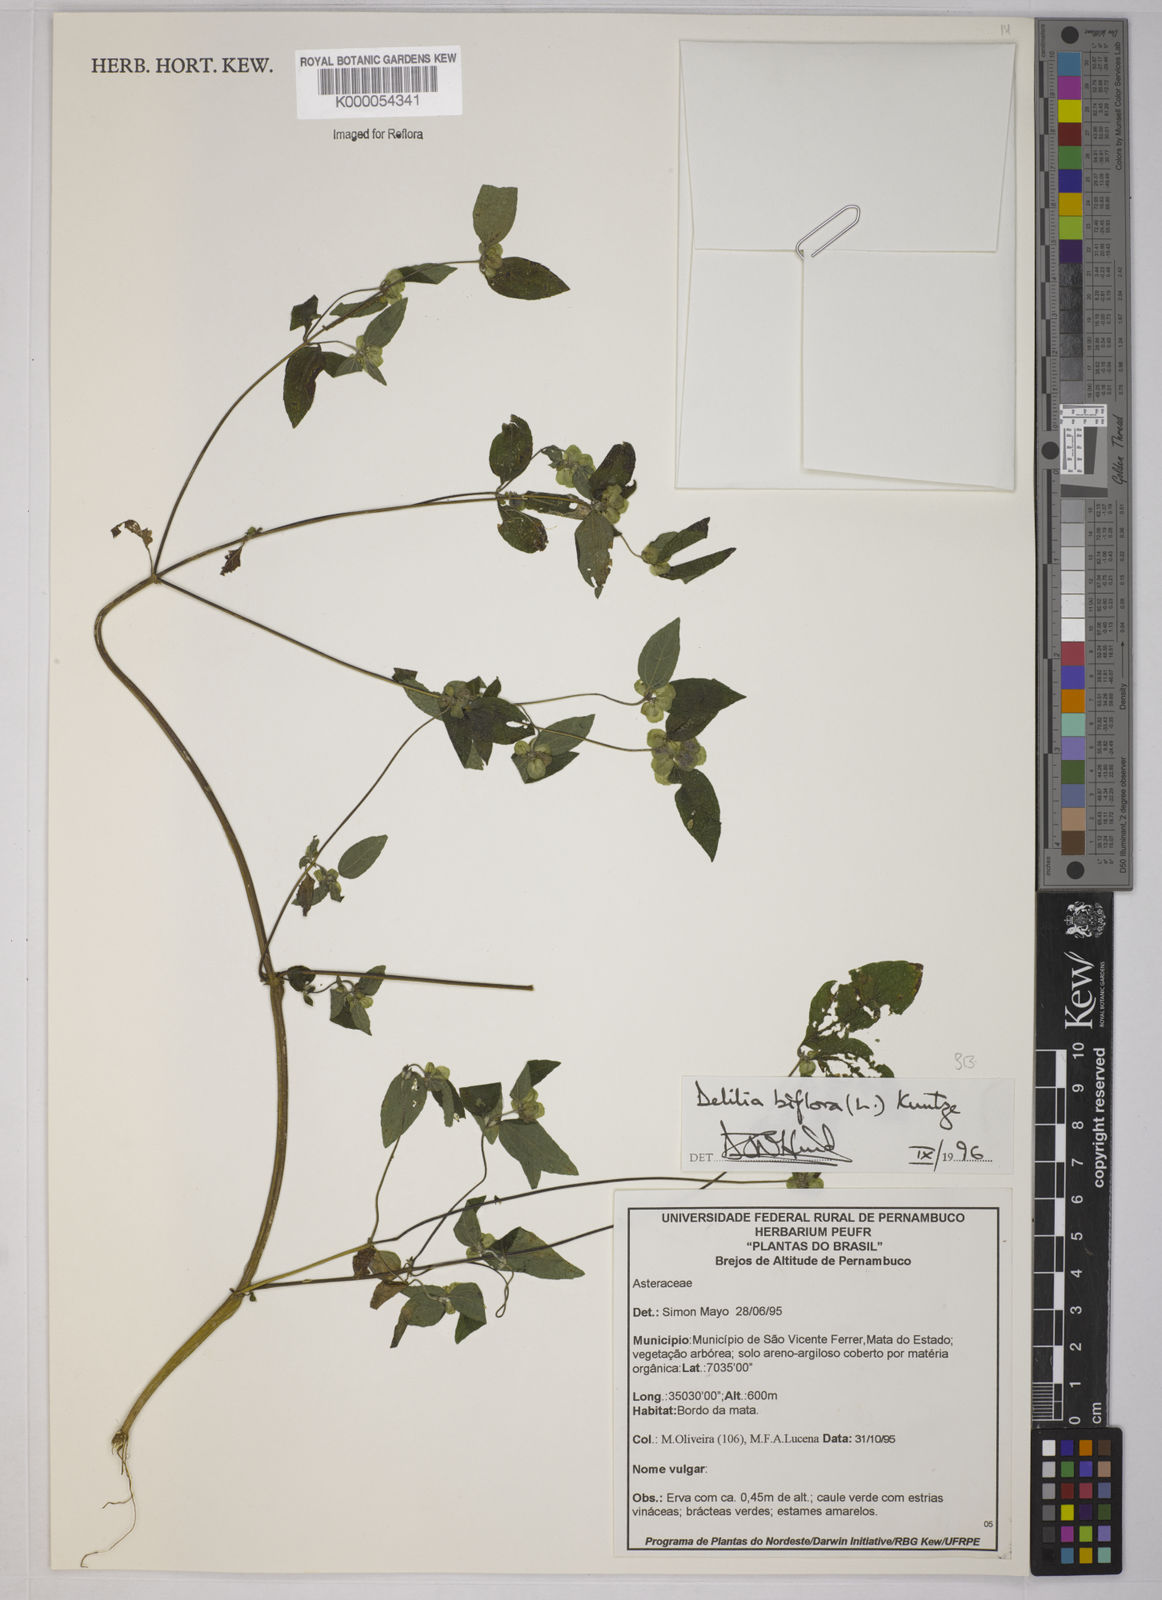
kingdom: Plantae
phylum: Tracheophyta
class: Magnoliopsida
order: Asterales
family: Asteraceae
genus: Delilia
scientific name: Delilia biflora
